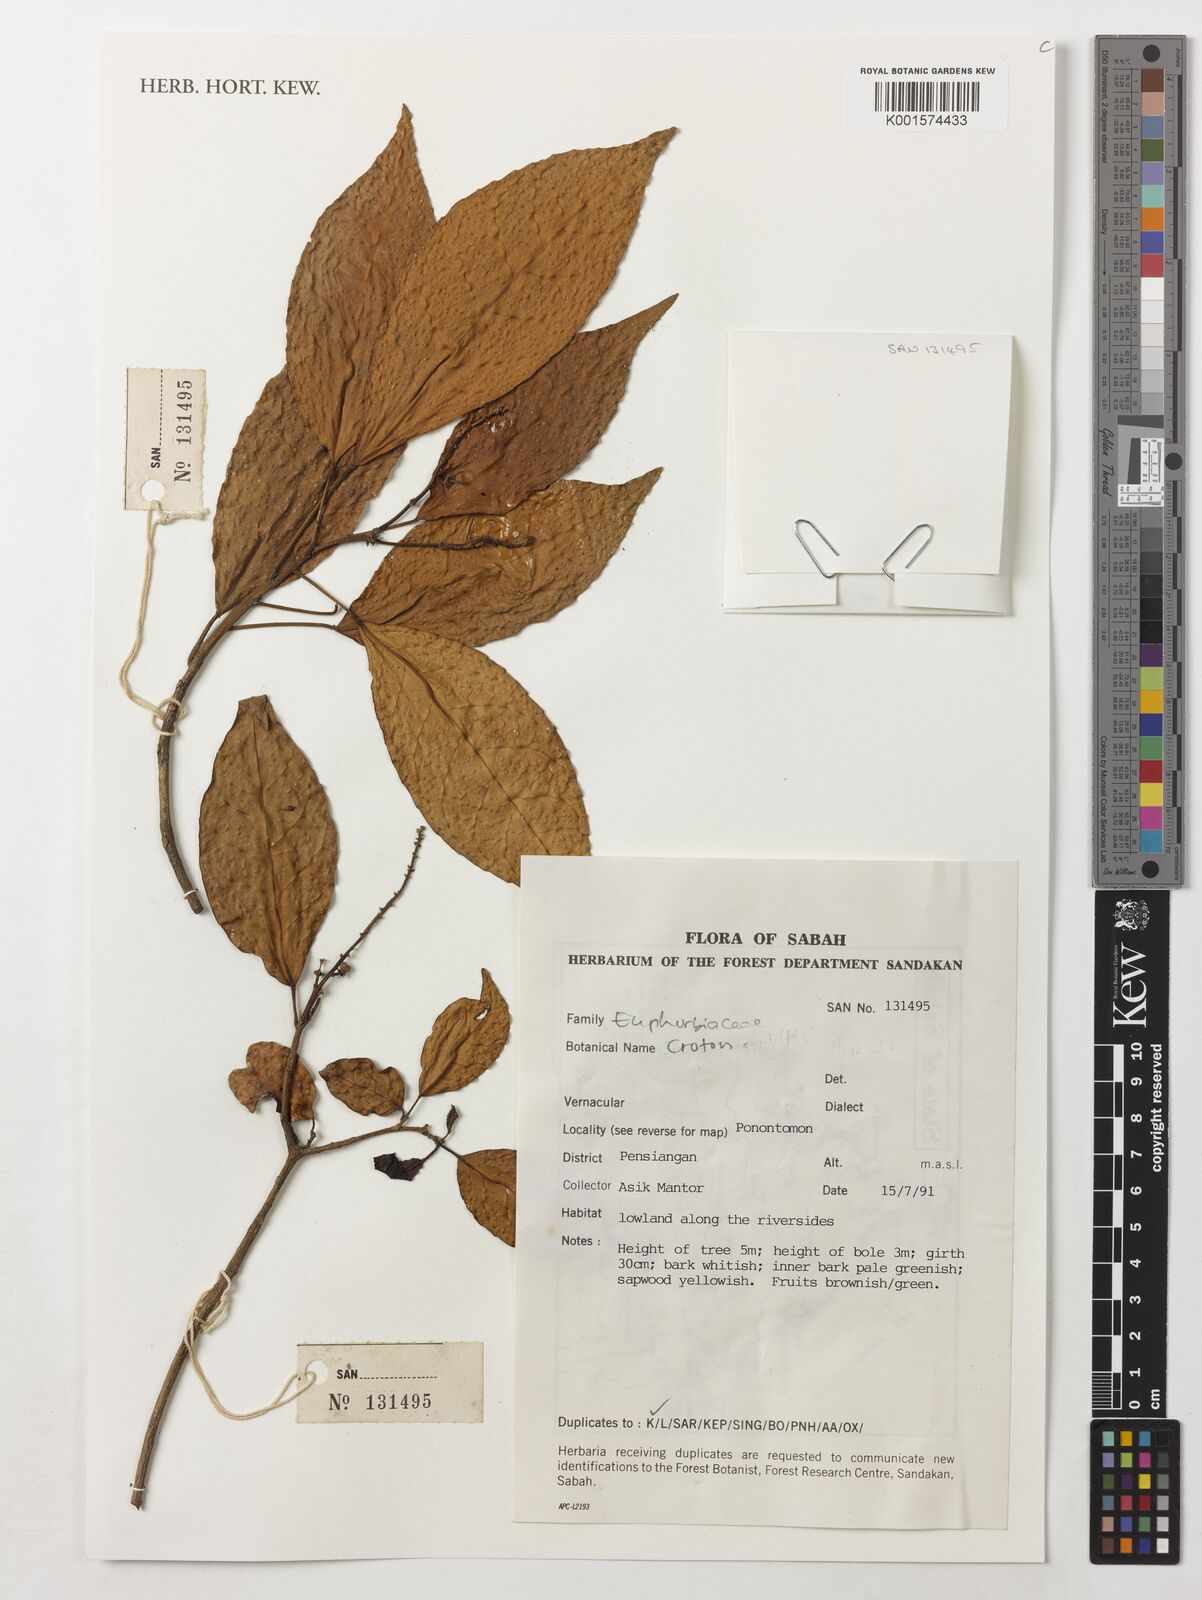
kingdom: Plantae
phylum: Tracheophyta
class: Magnoliopsida
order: Malpighiales
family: Euphorbiaceae
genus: Croton
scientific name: Croton
